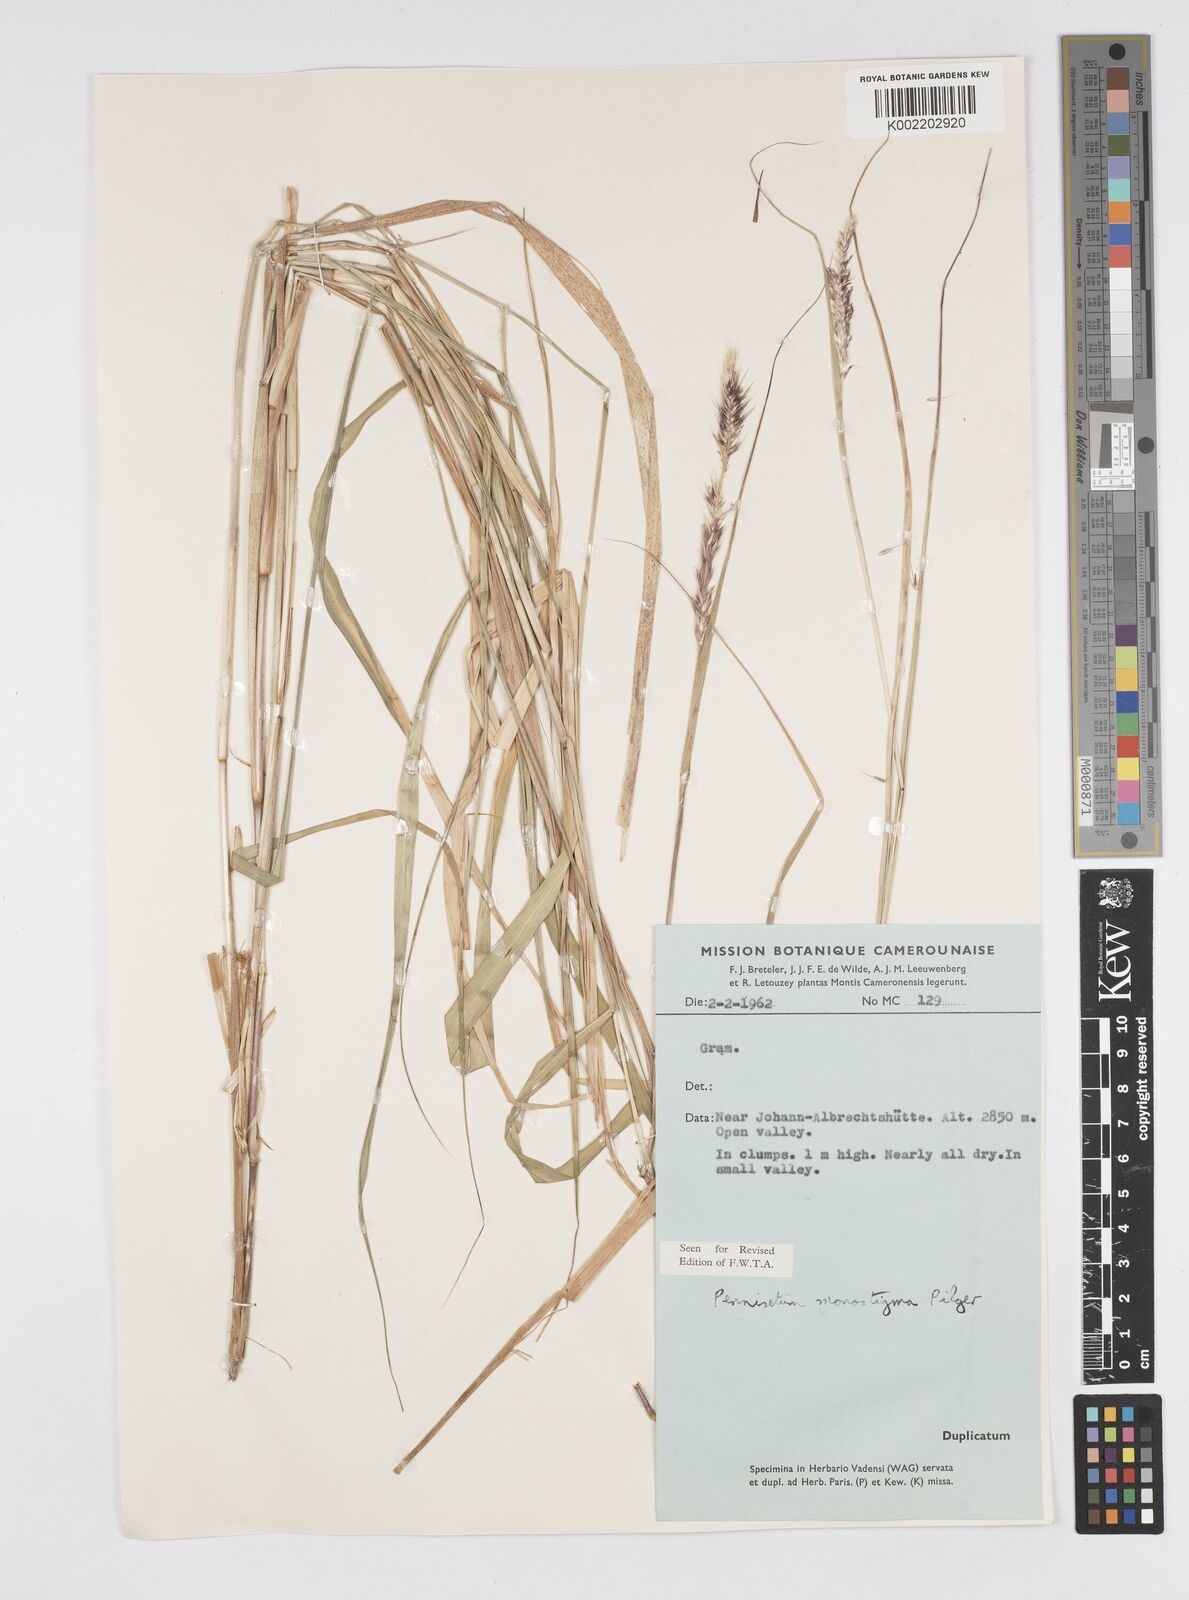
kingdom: Plantae
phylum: Tracheophyta
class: Liliopsida
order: Poales
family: Poaceae
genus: Cenchrus
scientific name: Cenchrus monostigma
